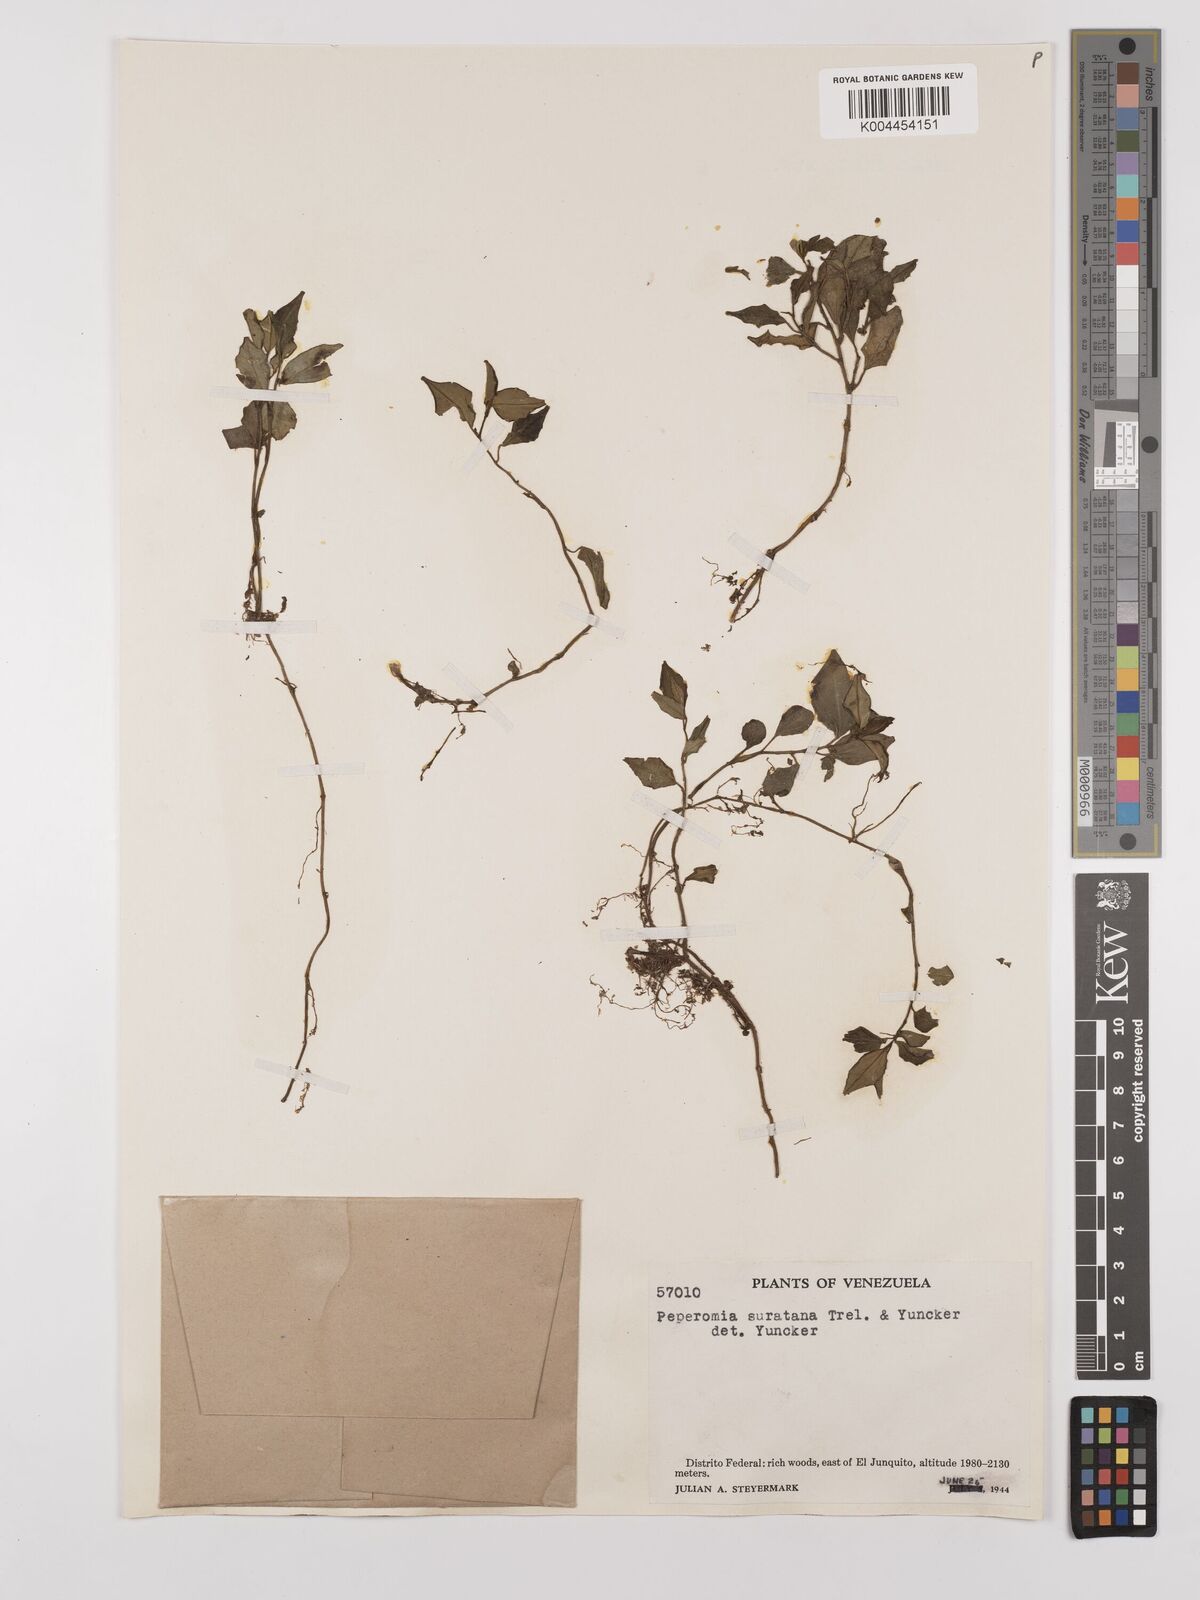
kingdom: Plantae
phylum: Tracheophyta
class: Magnoliopsida
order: Piperales
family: Piperaceae
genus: Peperomia
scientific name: Peperomia suratana
